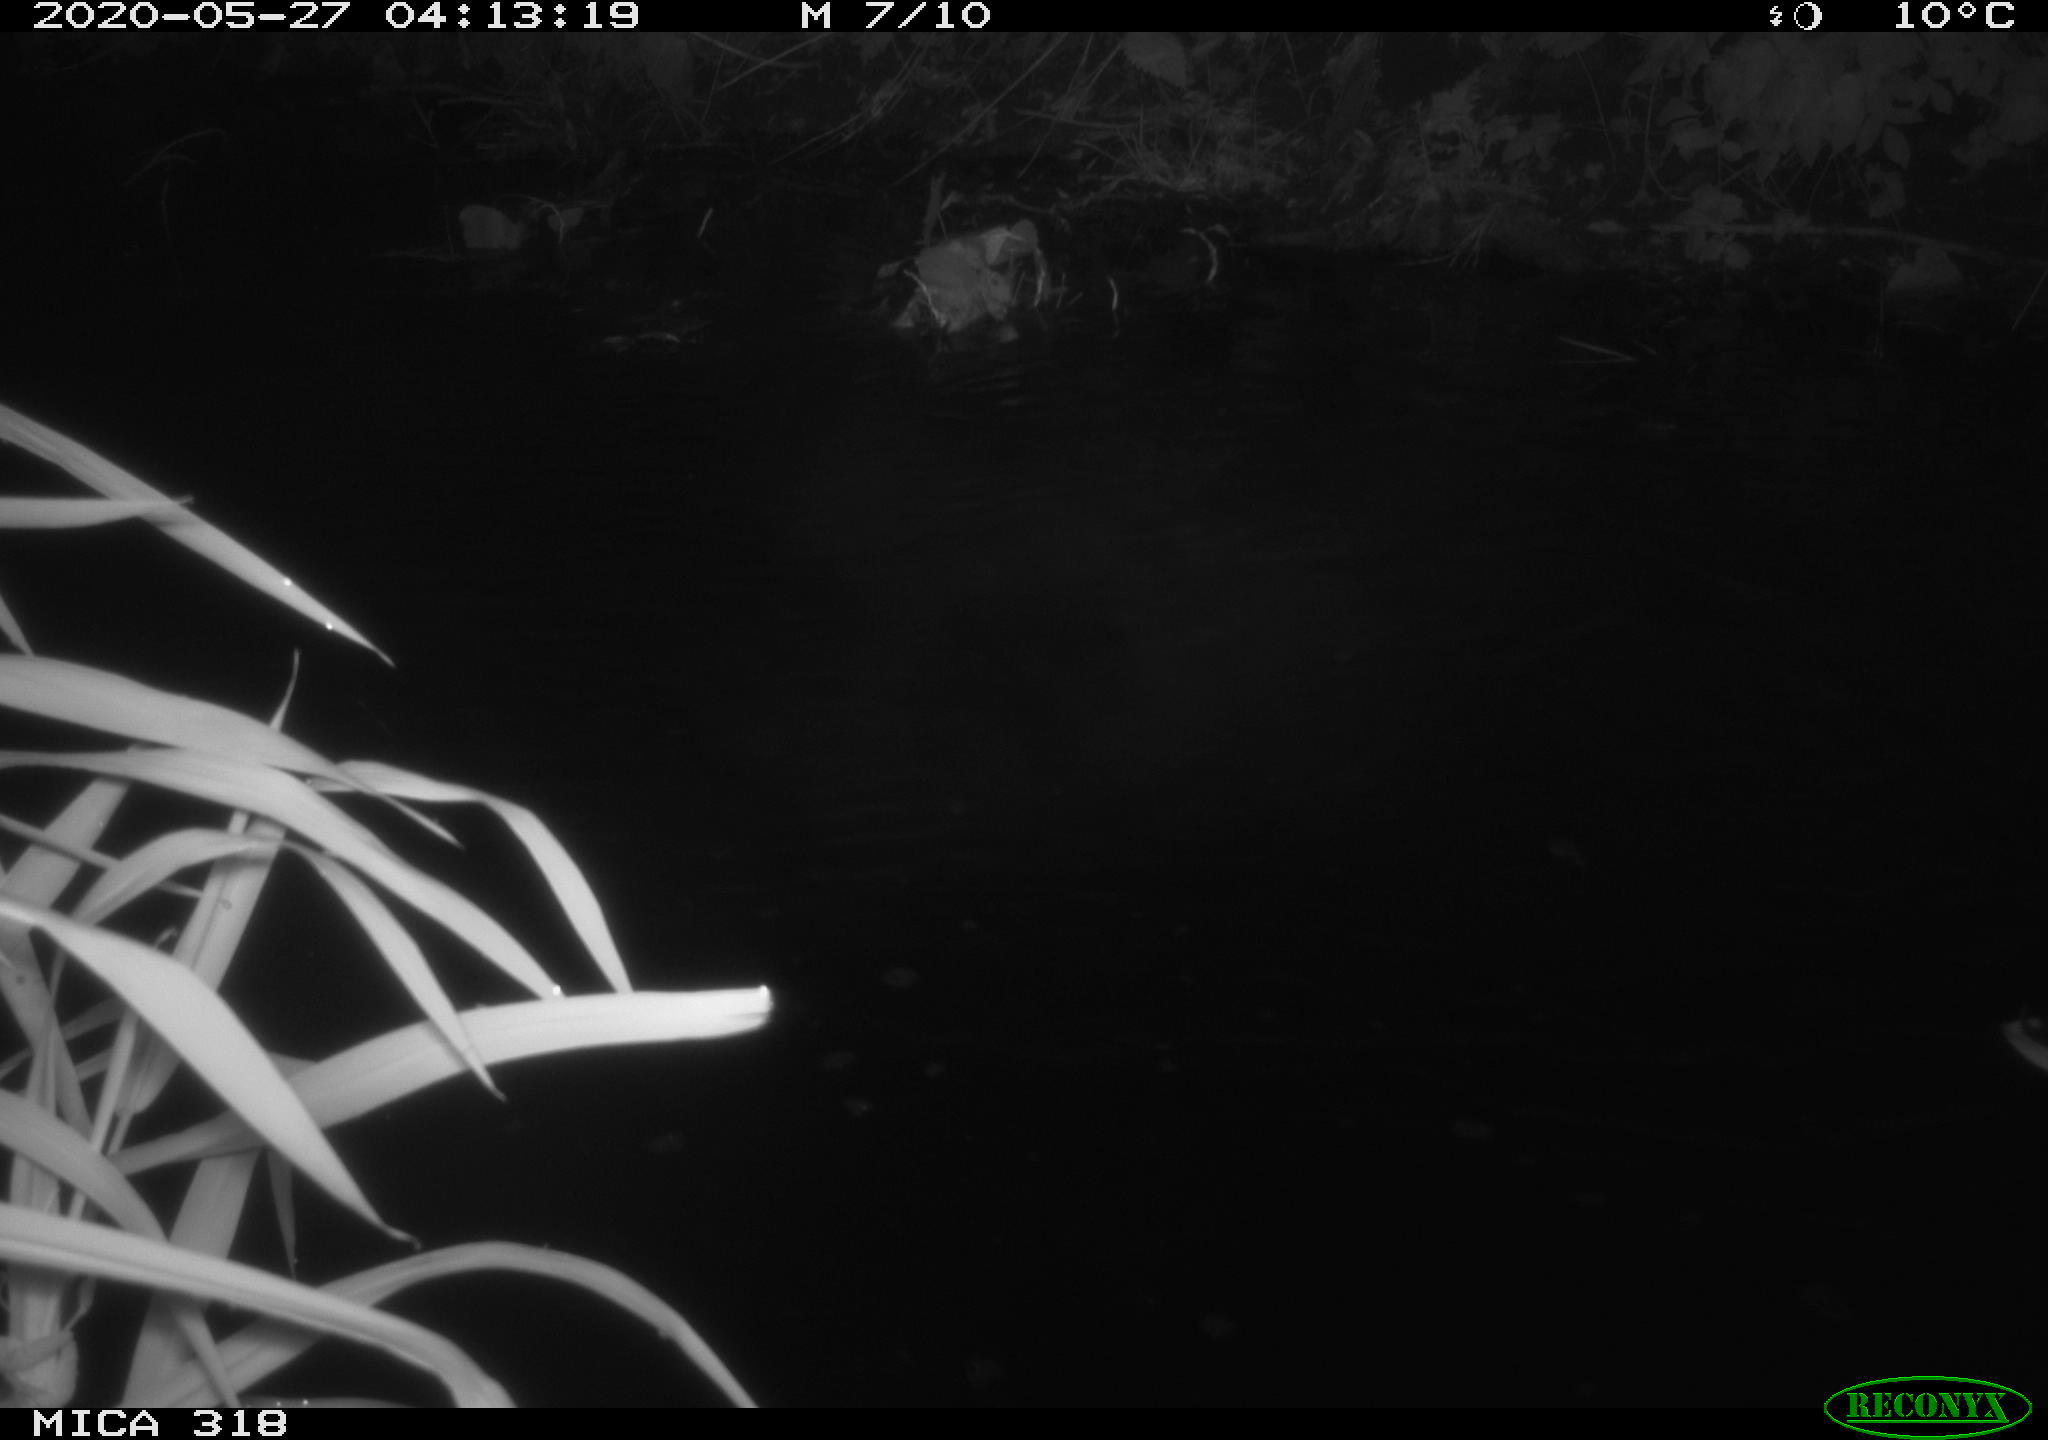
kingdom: Animalia
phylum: Chordata
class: Aves
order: Anseriformes
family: Anatidae
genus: Anas
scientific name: Anas platyrhynchos
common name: Mallard
